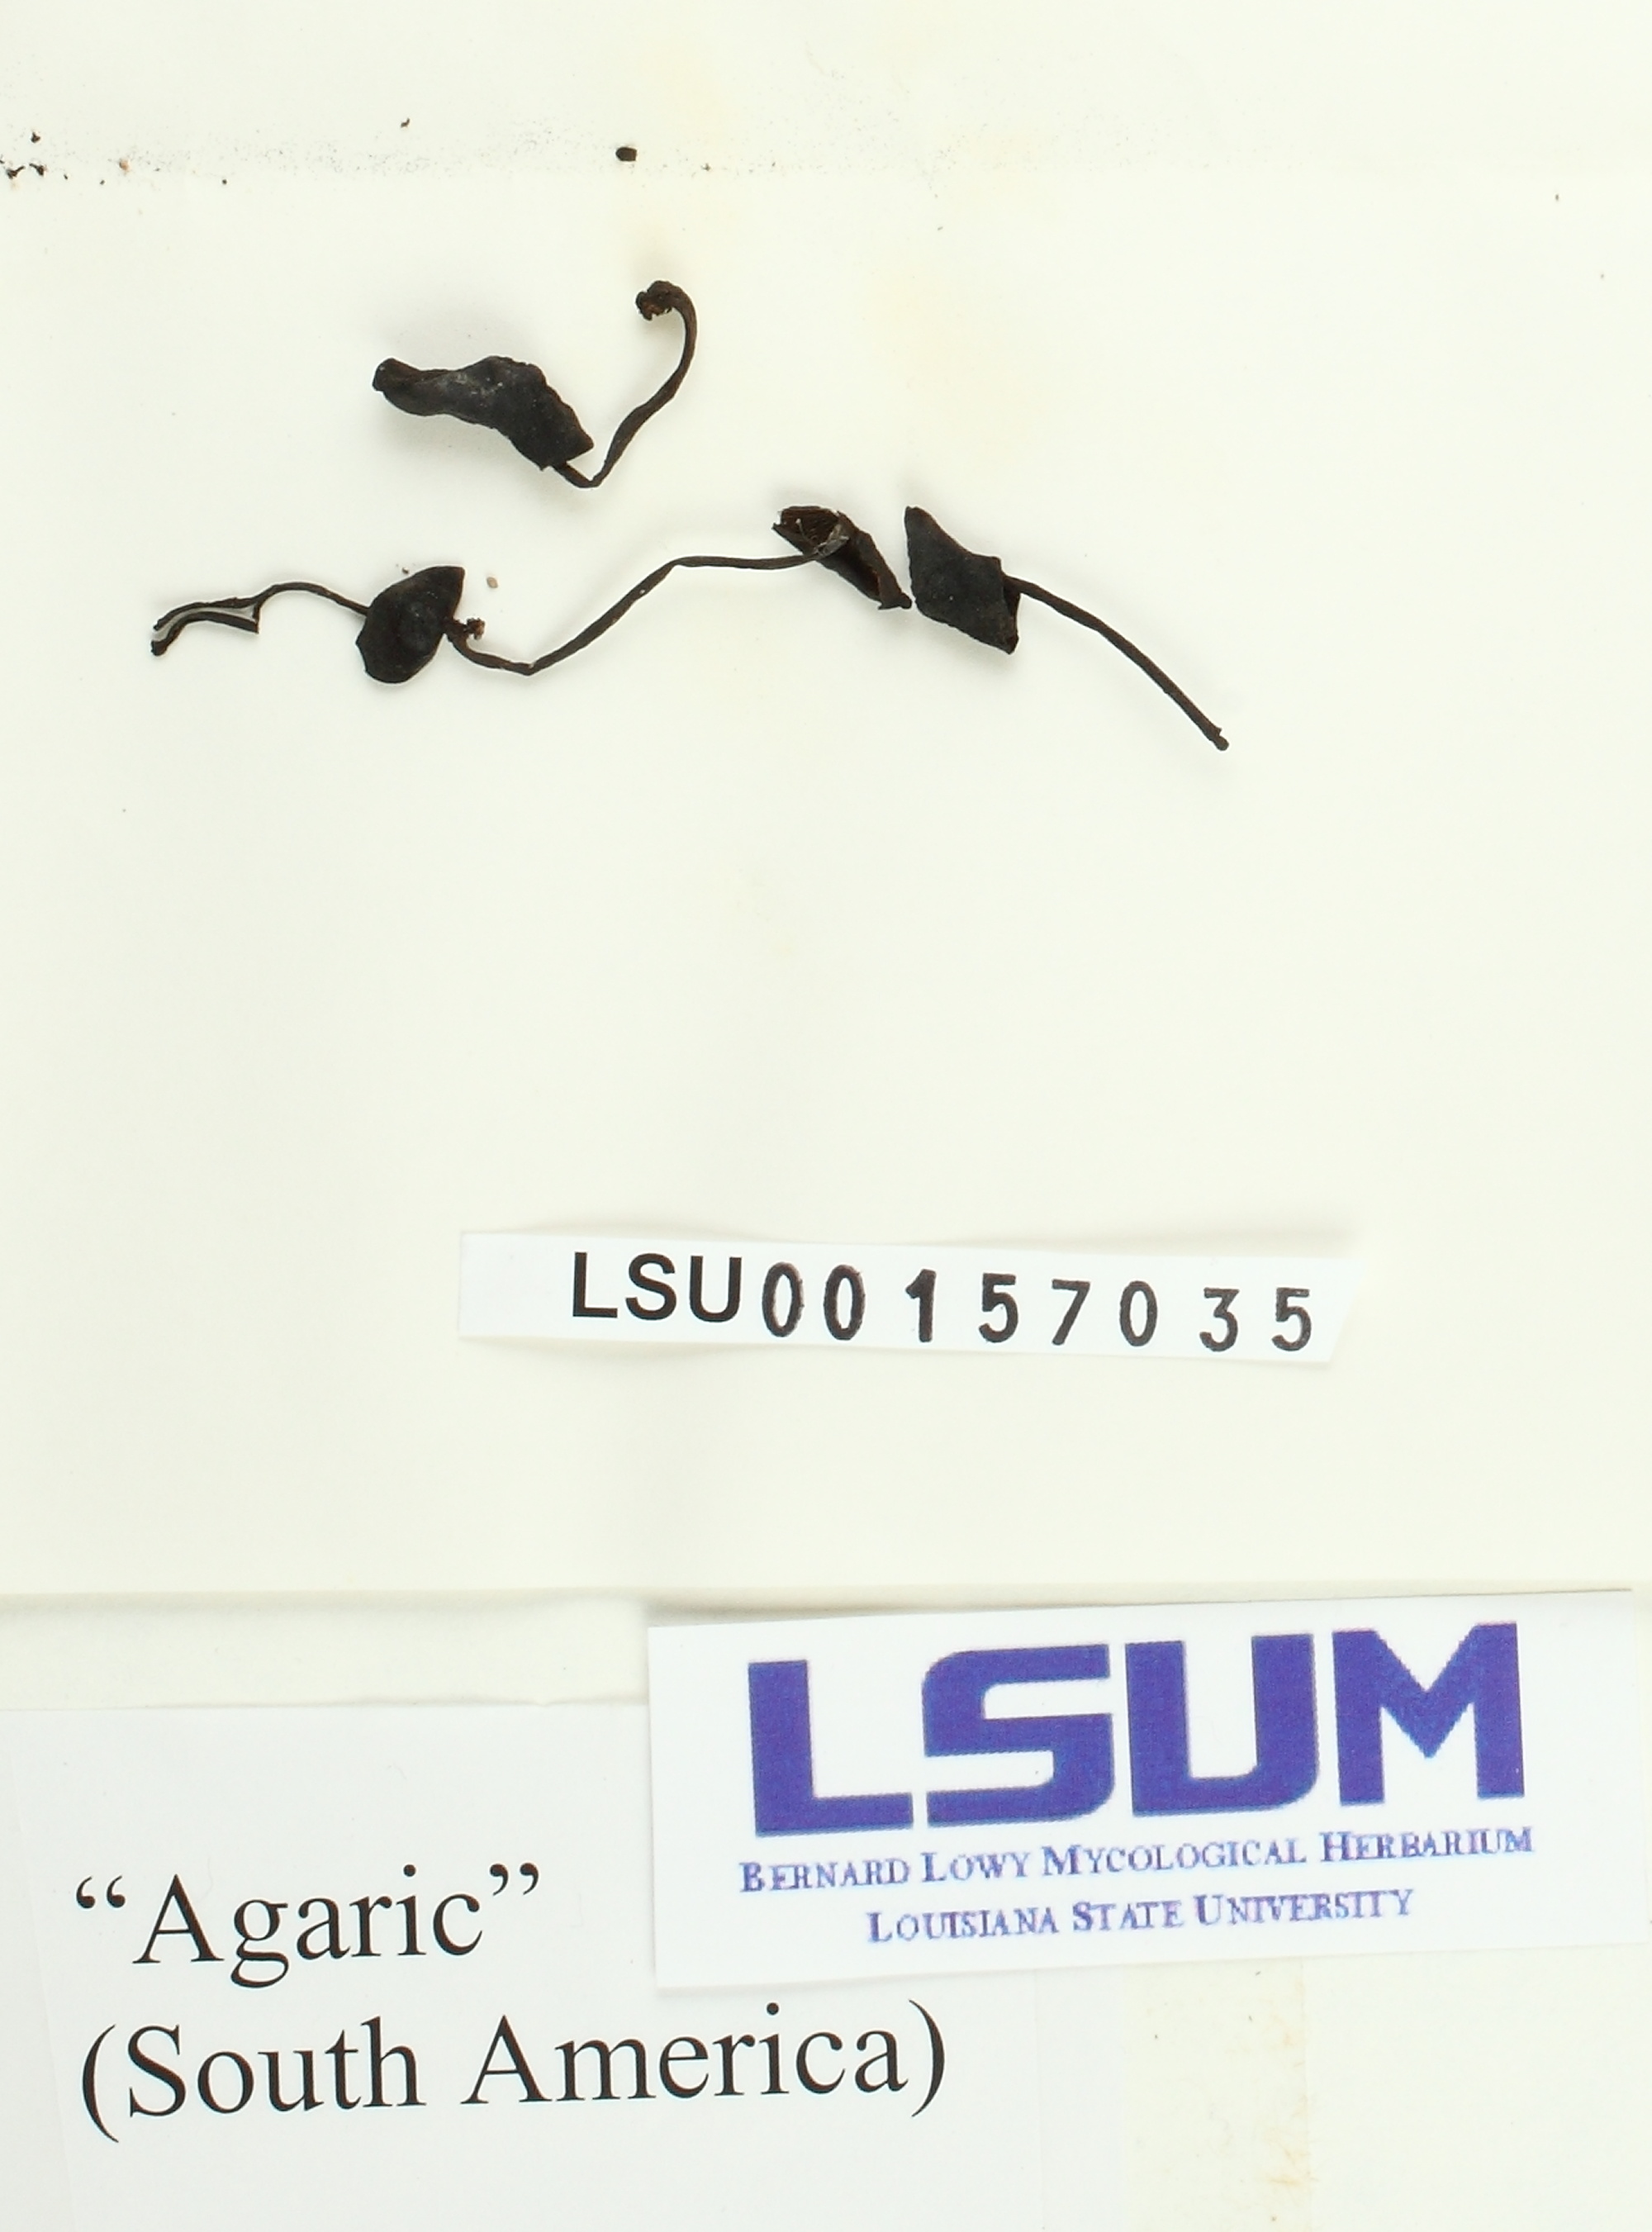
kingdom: Fungi
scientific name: Fungi
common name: Fungi
